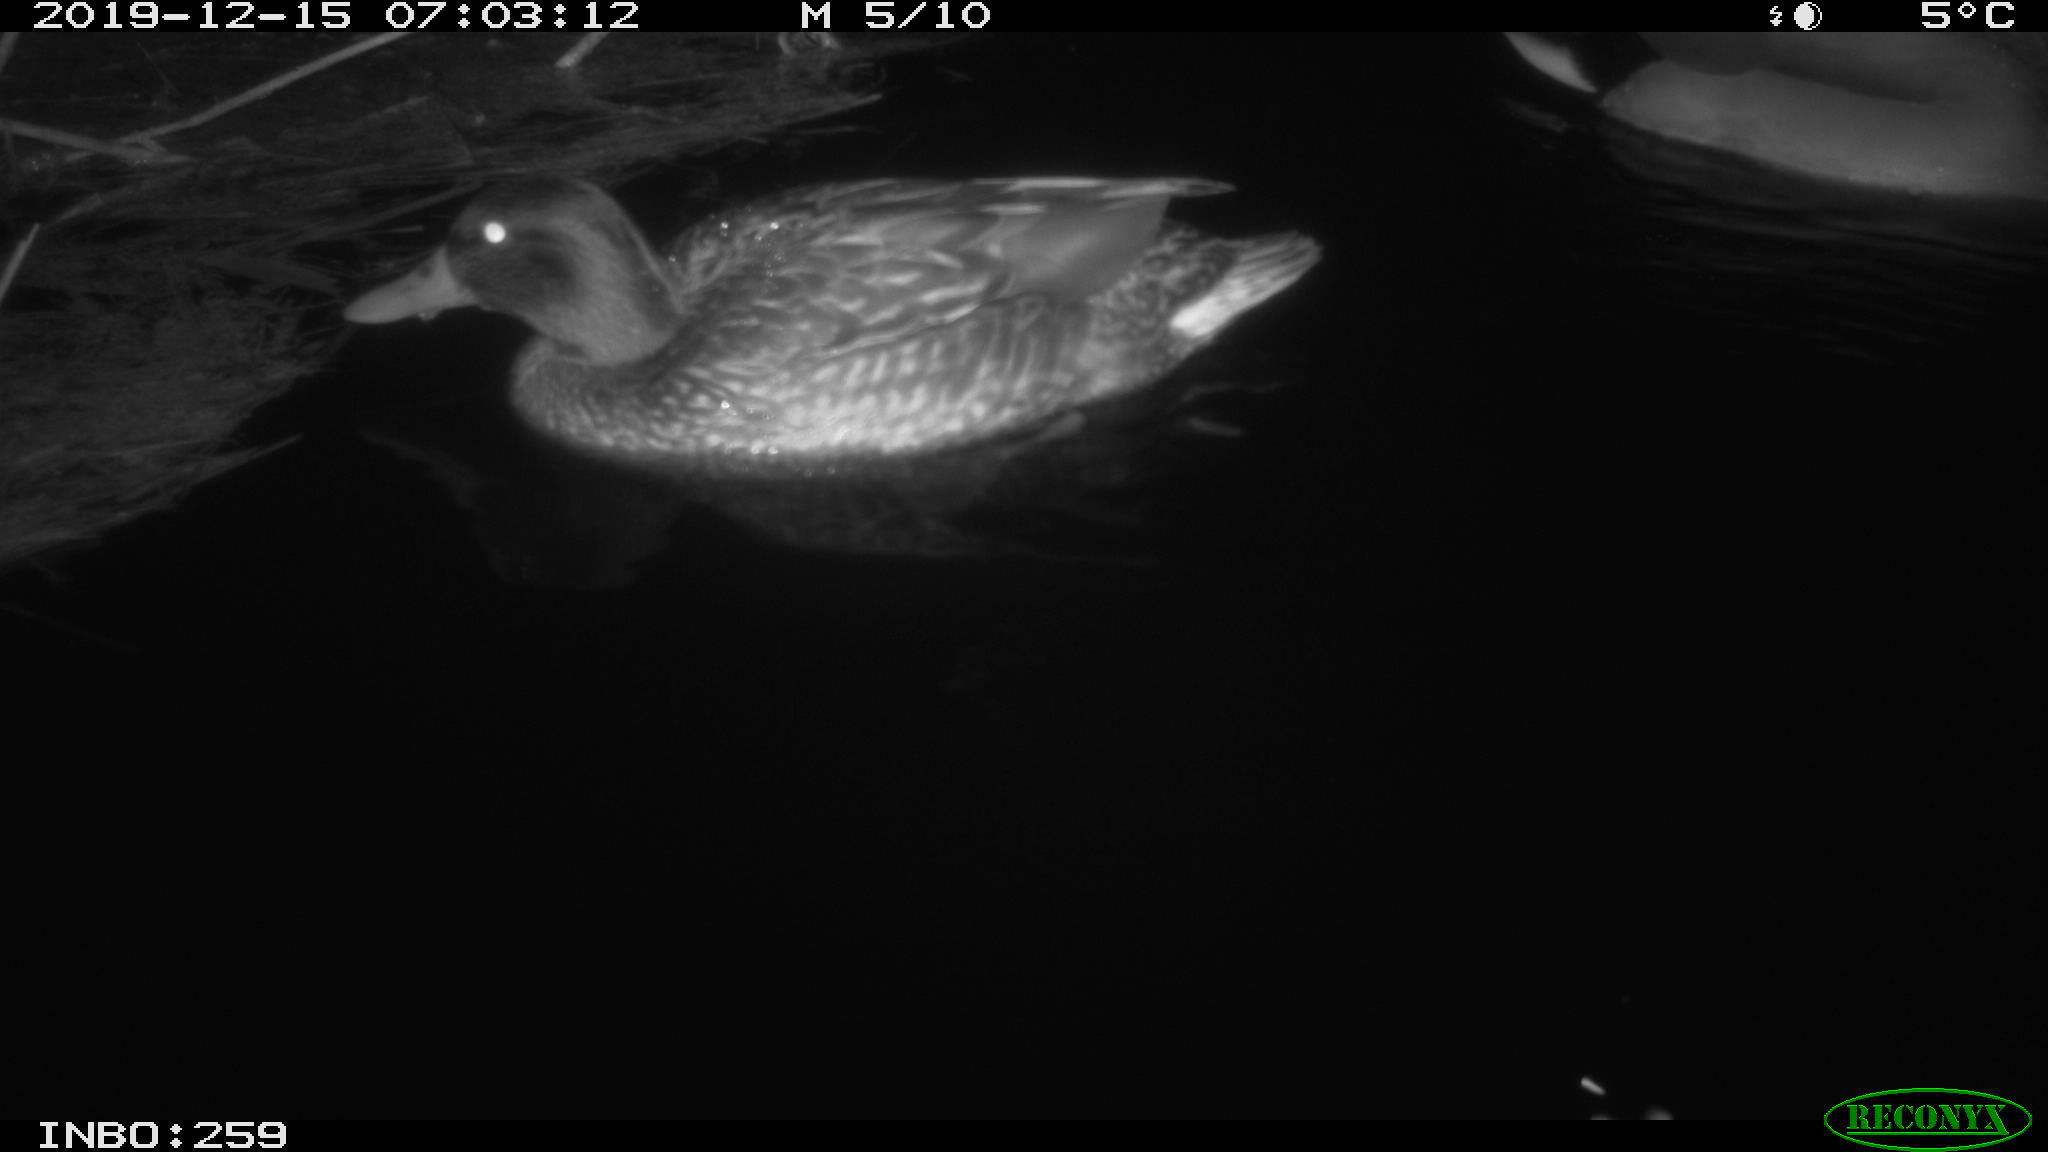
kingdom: Animalia
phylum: Chordata
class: Aves
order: Anseriformes
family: Anatidae
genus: Anas
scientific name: Anas platyrhynchos
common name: Mallard
